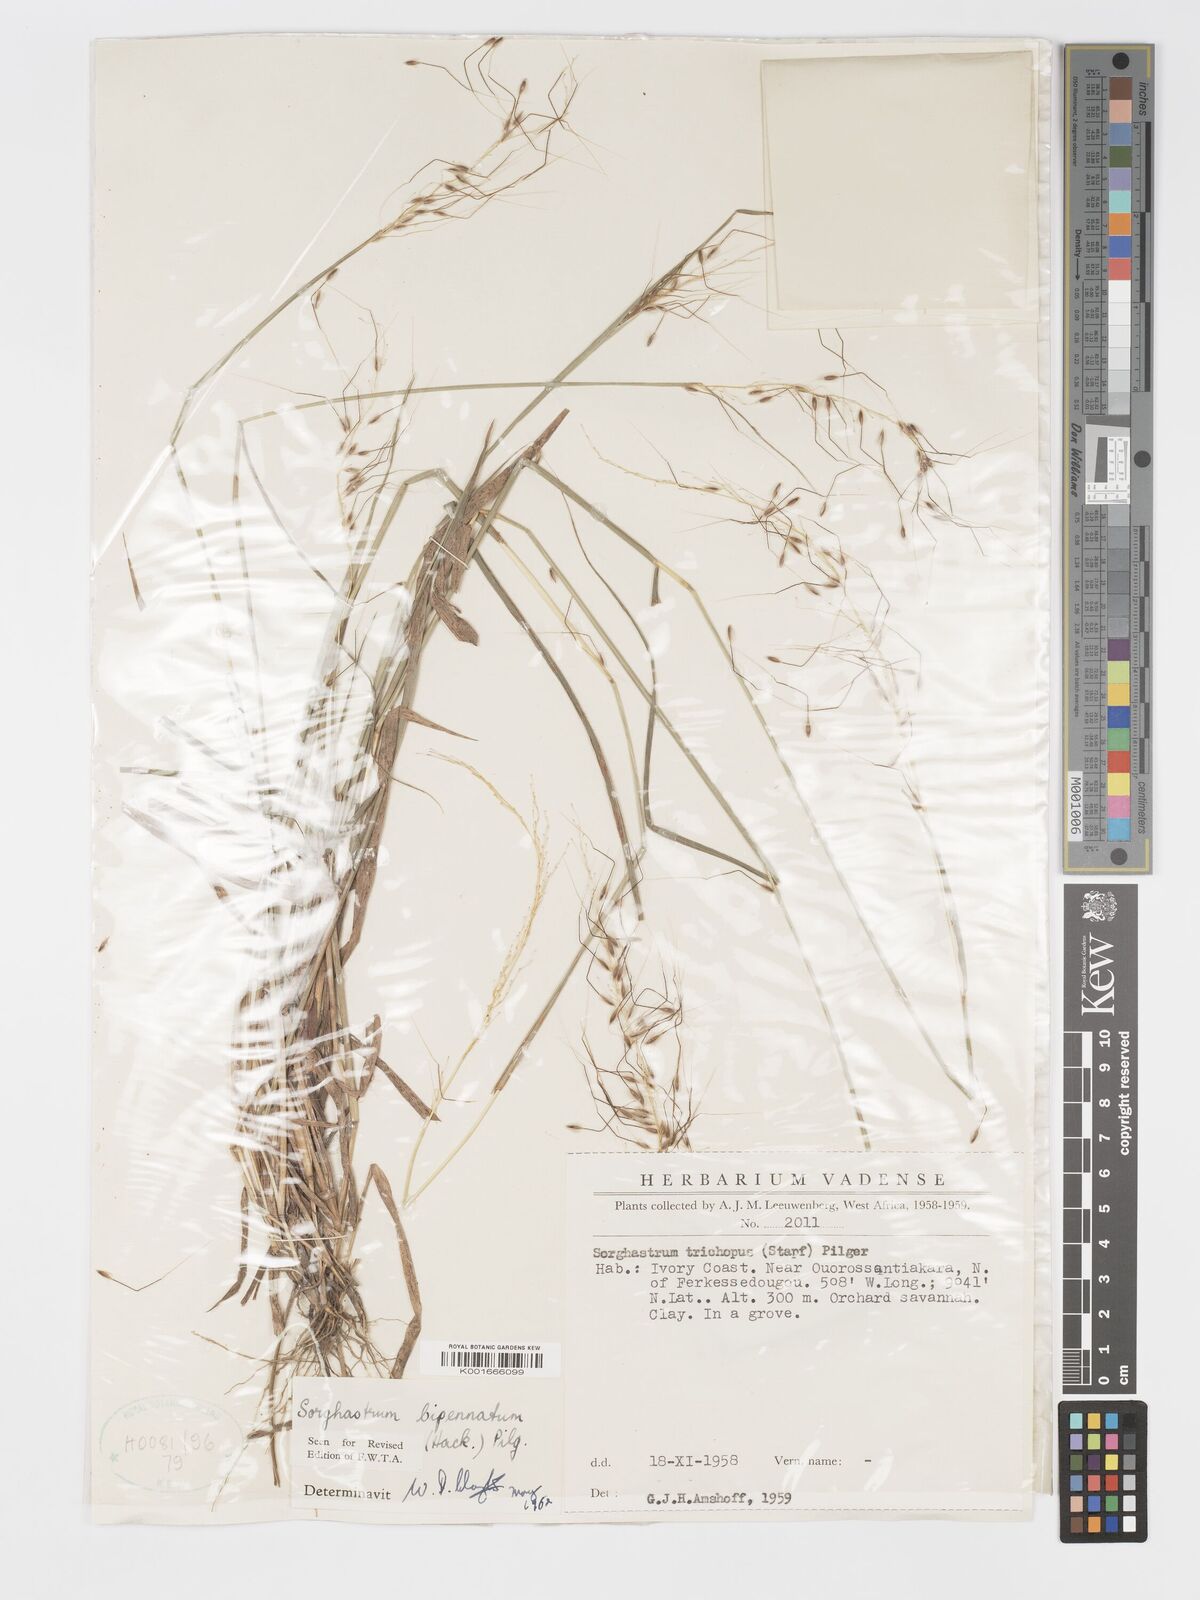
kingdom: Plantae
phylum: Tracheophyta
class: Liliopsida
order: Poales
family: Poaceae
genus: Sorghastrum
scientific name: Sorghastrum incompletum
